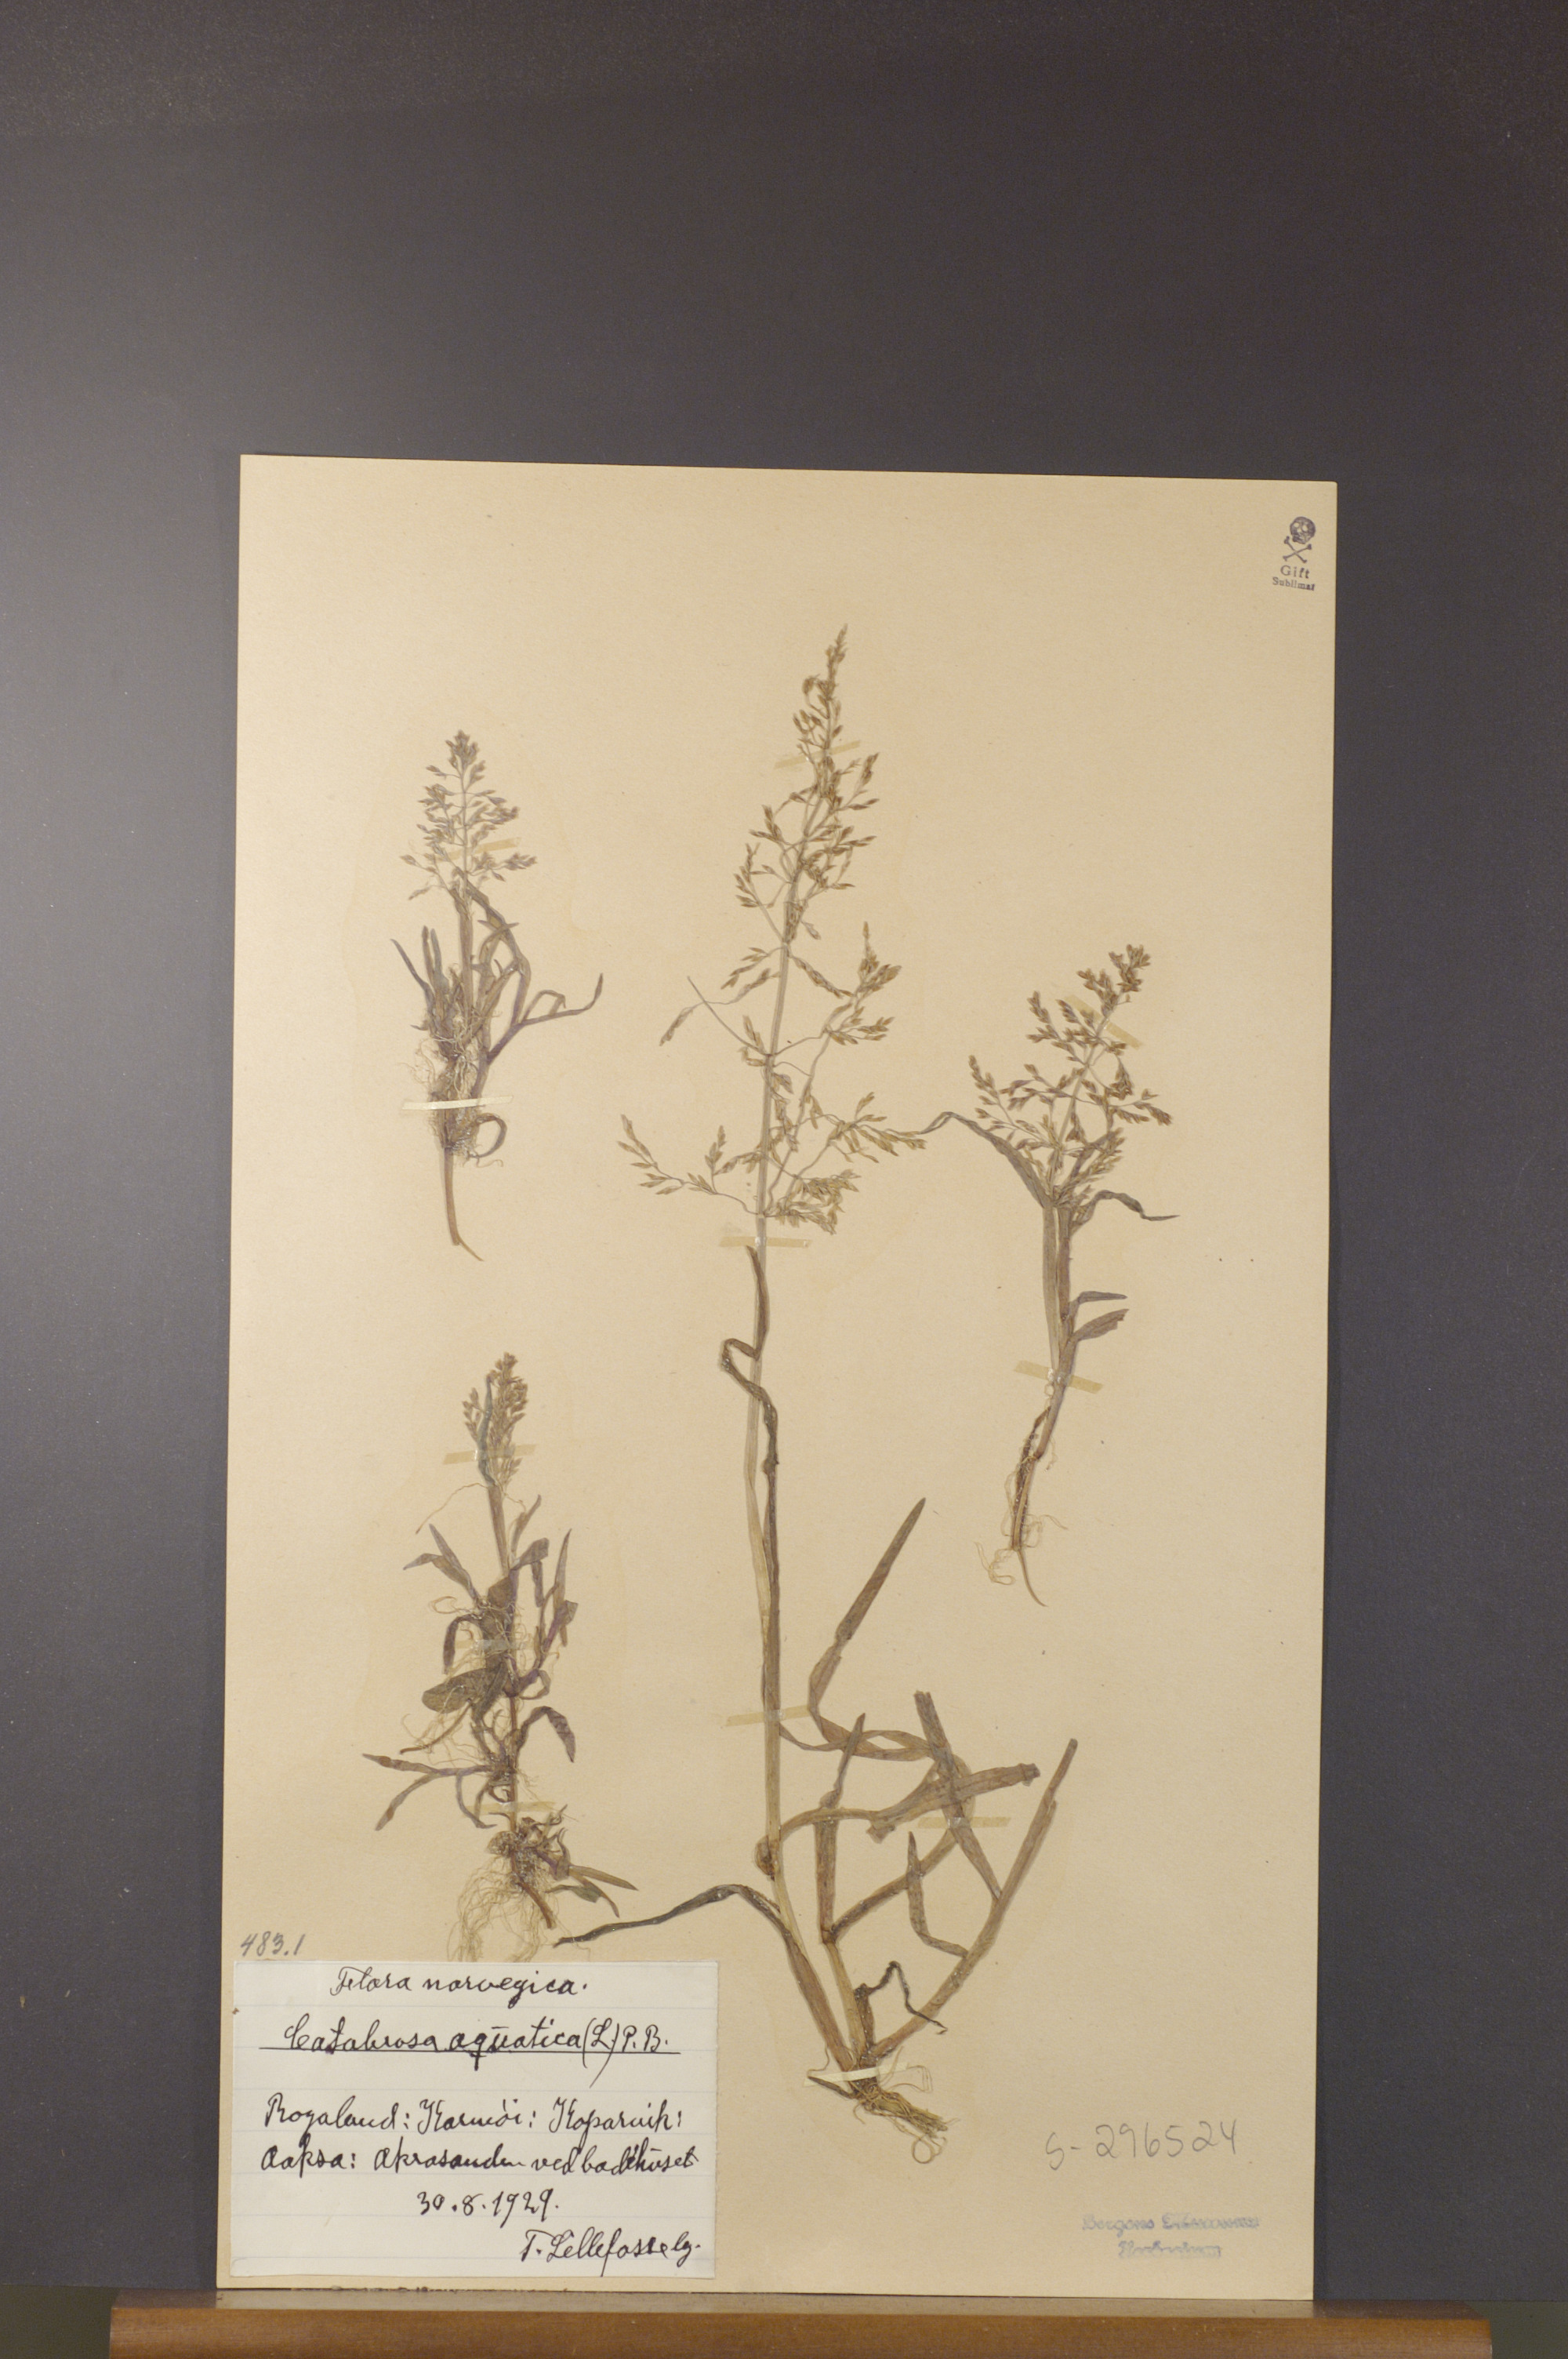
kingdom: Plantae
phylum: Tracheophyta
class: Liliopsida
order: Poales
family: Poaceae
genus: Catabrosa
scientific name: Catabrosa aquatica
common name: Whorl-grass
